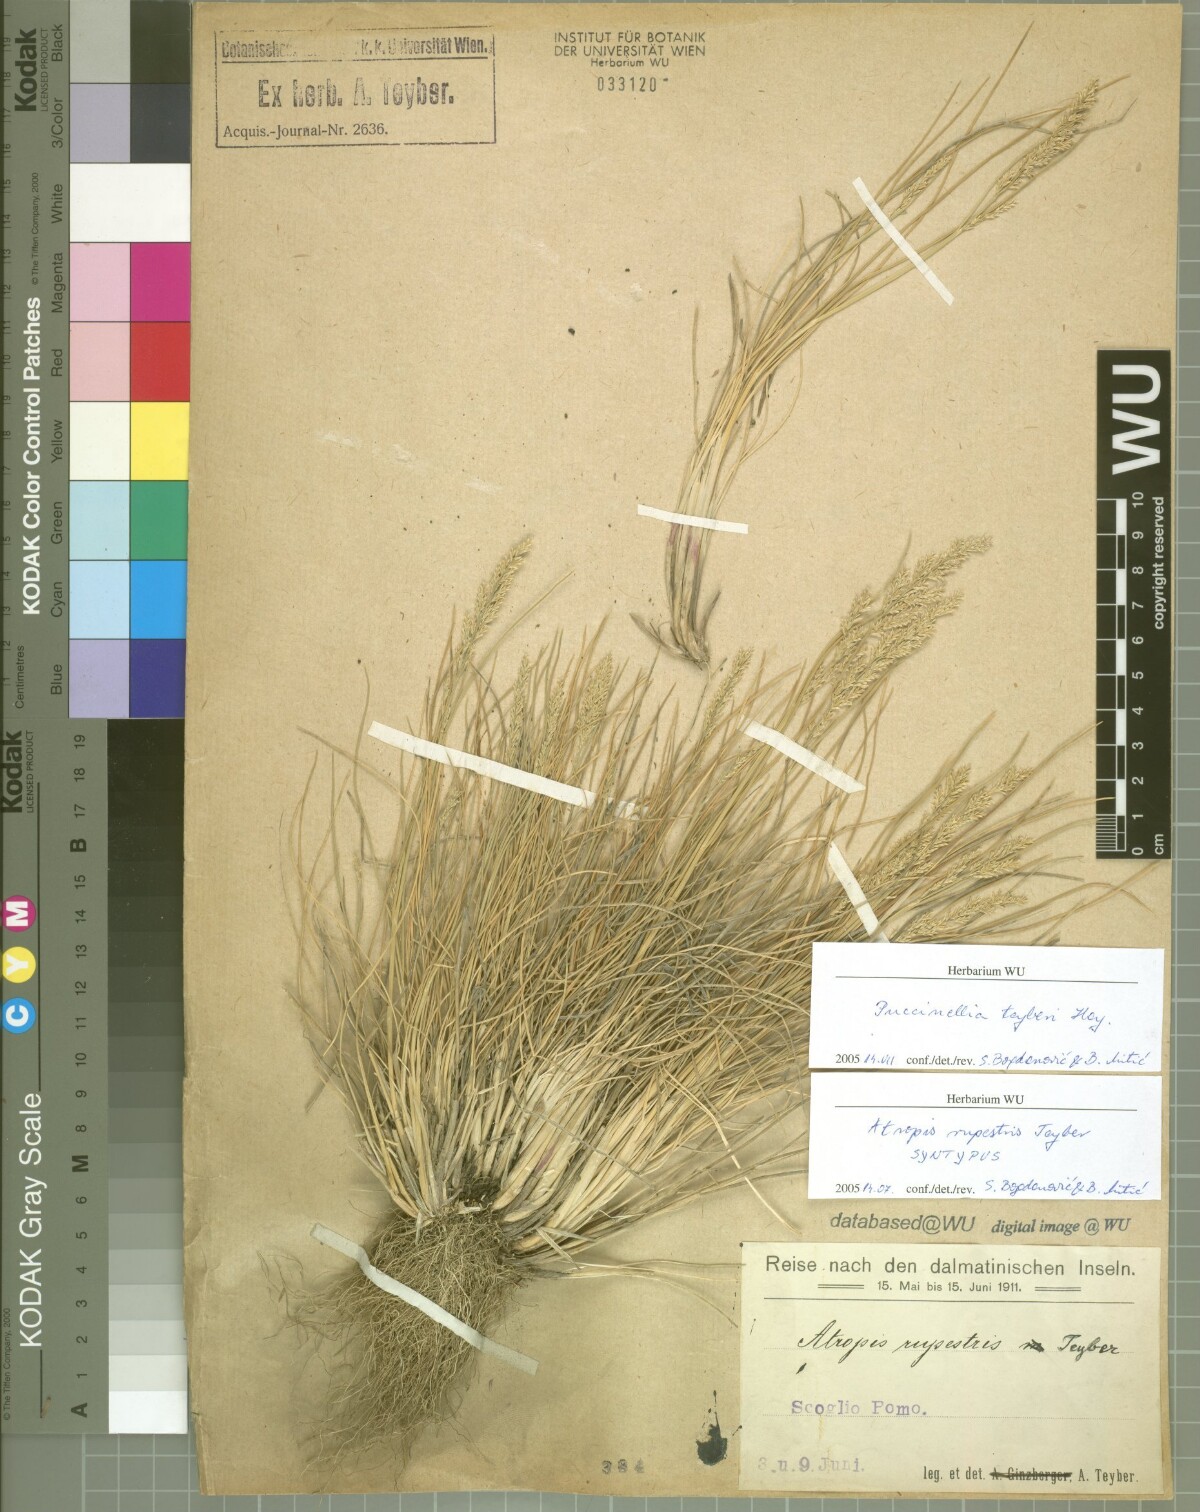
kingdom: Plantae
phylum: Tracheophyta
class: Liliopsida
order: Poales
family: Poaceae
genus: Puccinellia
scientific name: Puccinellia festuciformis
